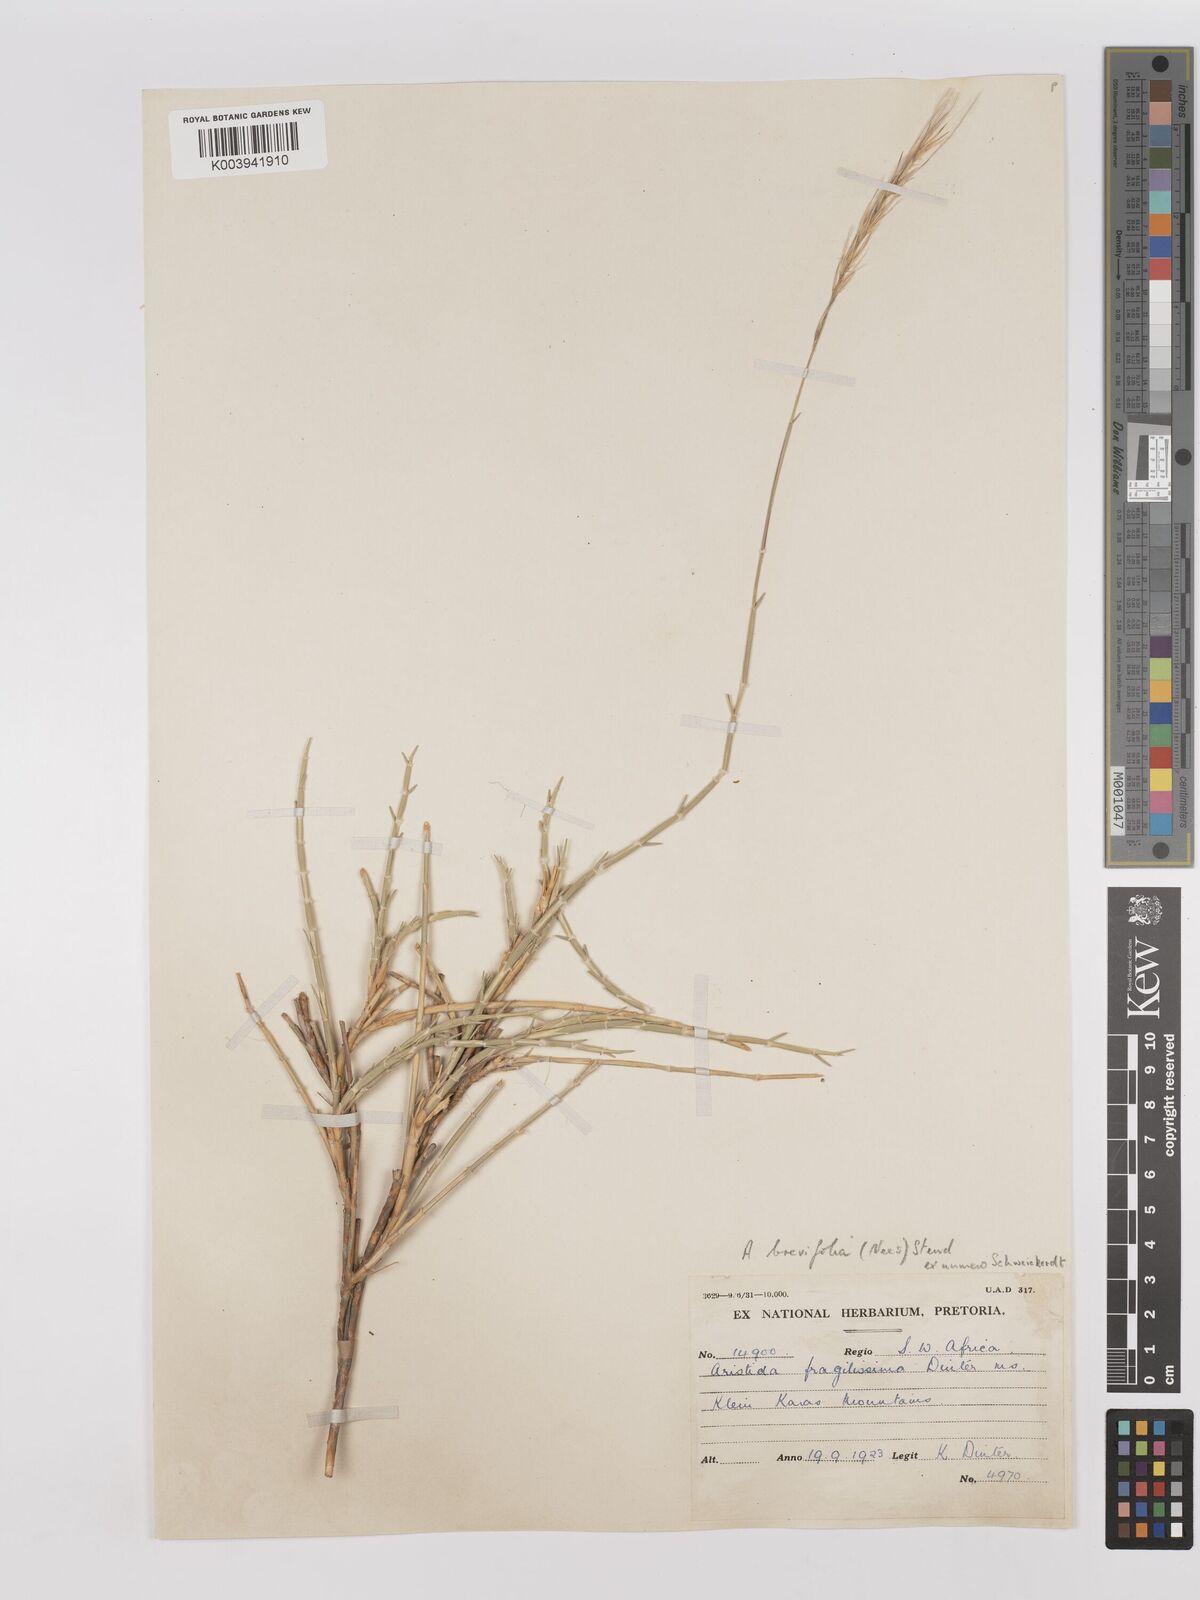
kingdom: Plantae
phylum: Tracheophyta
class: Liliopsida
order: Poales
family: Poaceae
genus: Stipagrostis
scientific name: Stipagrostis brevifolia
